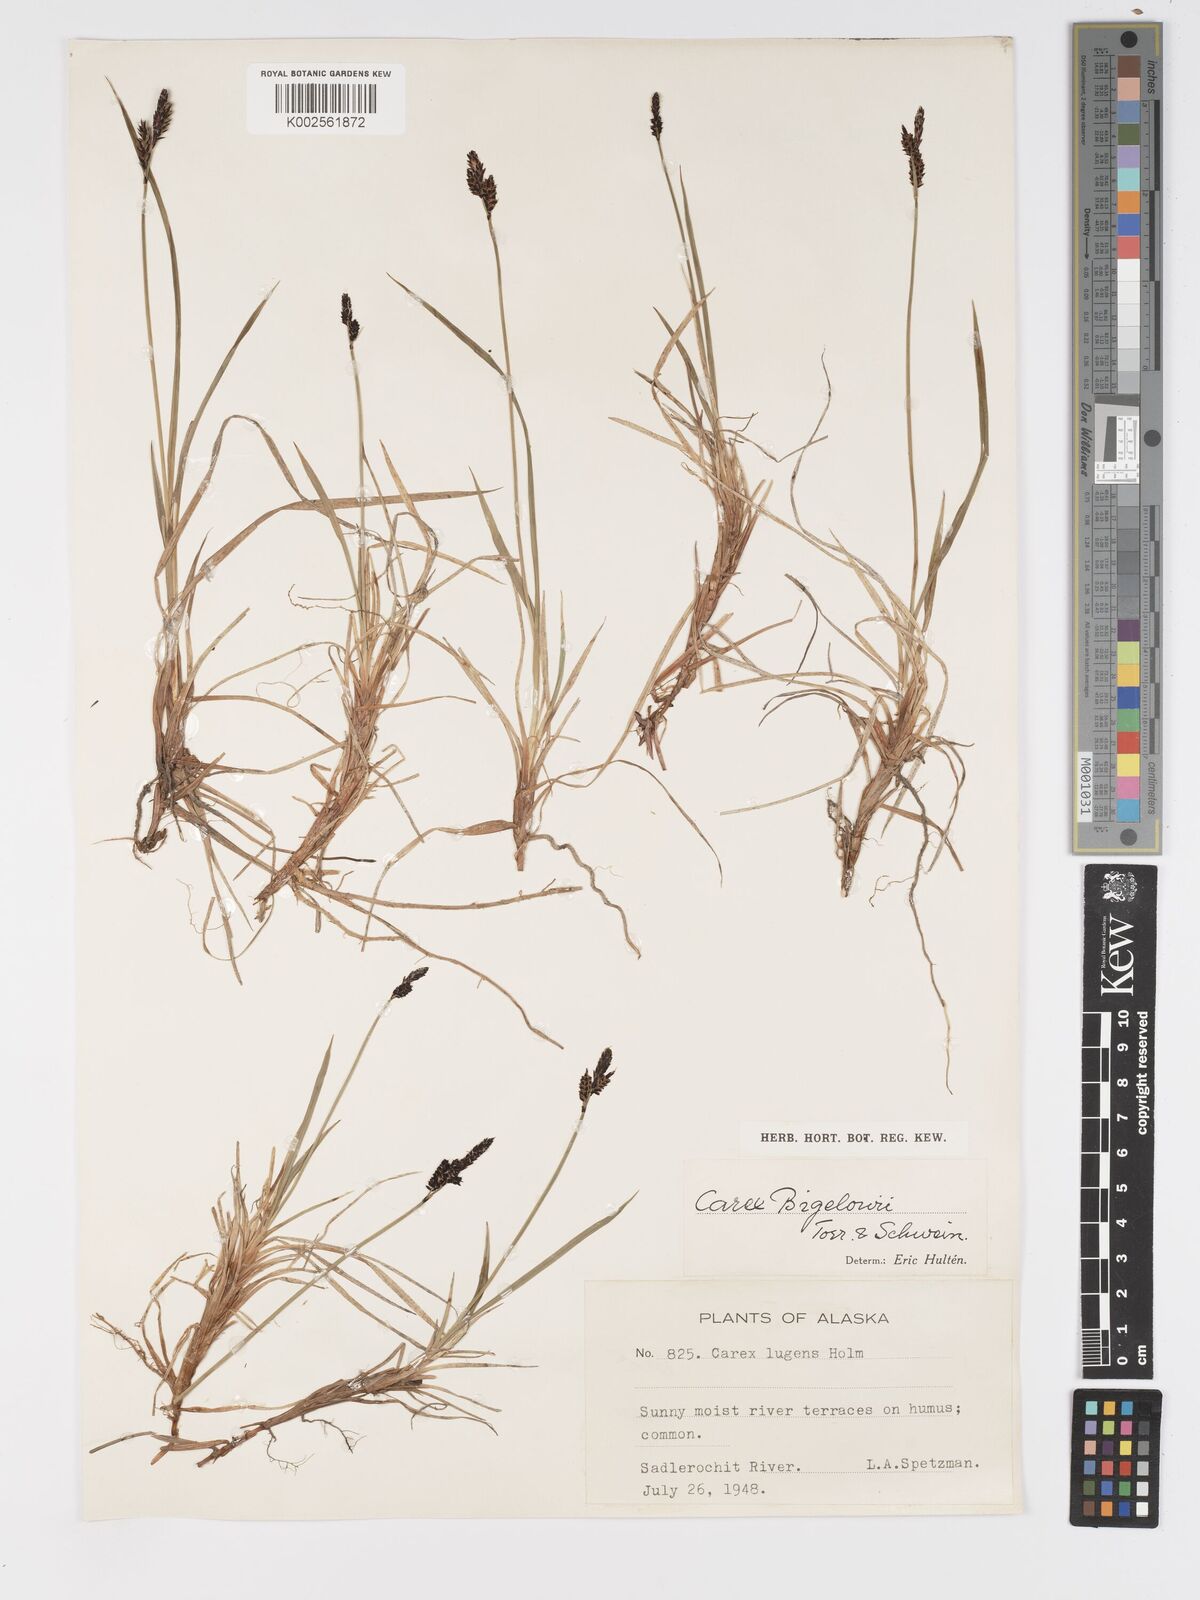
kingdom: Plantae
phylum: Tracheophyta
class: Liliopsida
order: Poales
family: Cyperaceae
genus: Carex
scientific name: Carex bigelowii
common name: Stiff sedge
